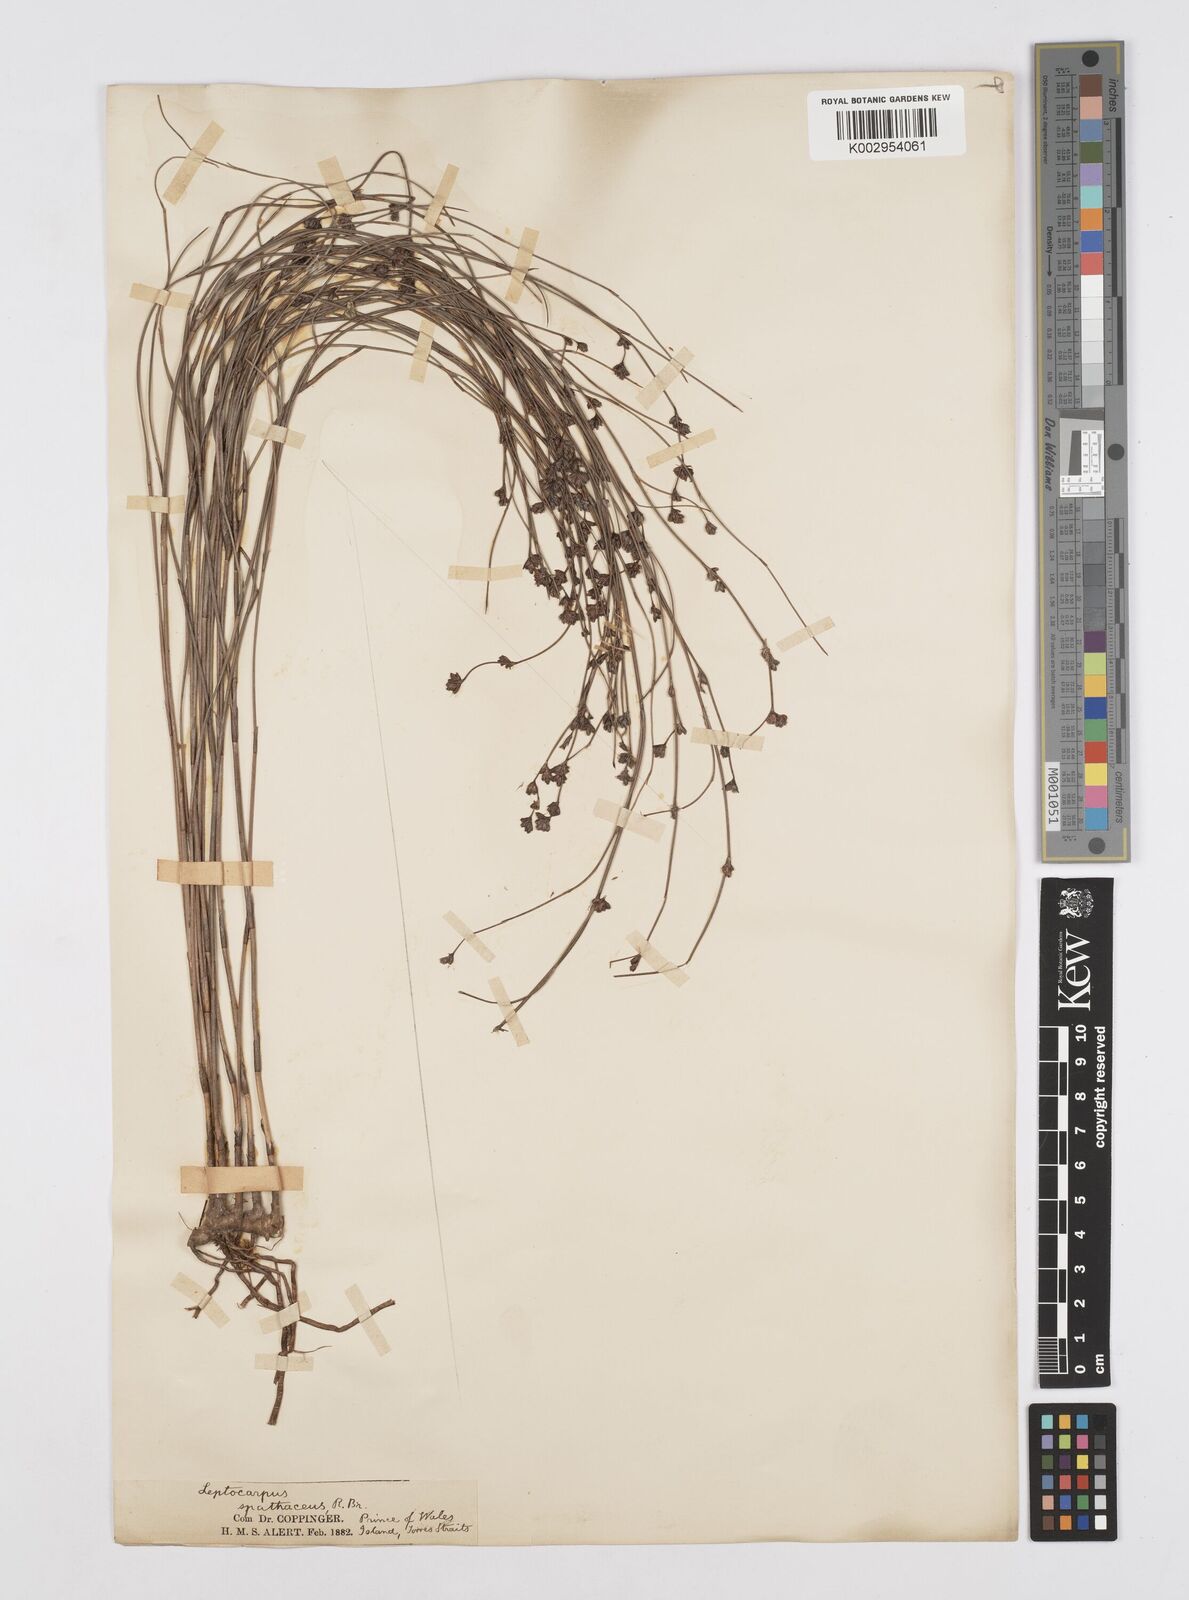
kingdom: Plantae
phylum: Tracheophyta
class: Liliopsida
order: Poales
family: Restionaceae
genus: Dapsilanthus
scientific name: Dapsilanthus spathaceus
